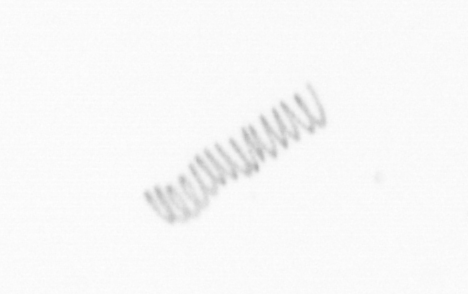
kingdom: Chromista
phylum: Ochrophyta
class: Bacillariophyceae
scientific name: Bacillariophyceae
